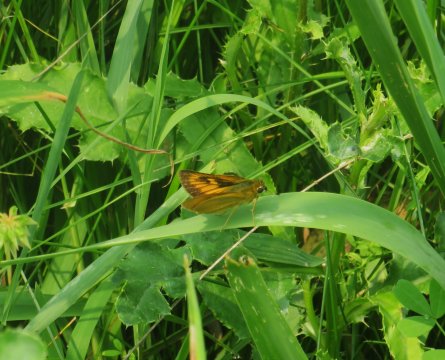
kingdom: Animalia
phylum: Arthropoda
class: Insecta
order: Lepidoptera
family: Hesperiidae
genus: Atrytone
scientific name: Atrytone delaware
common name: Delaware Skipper
